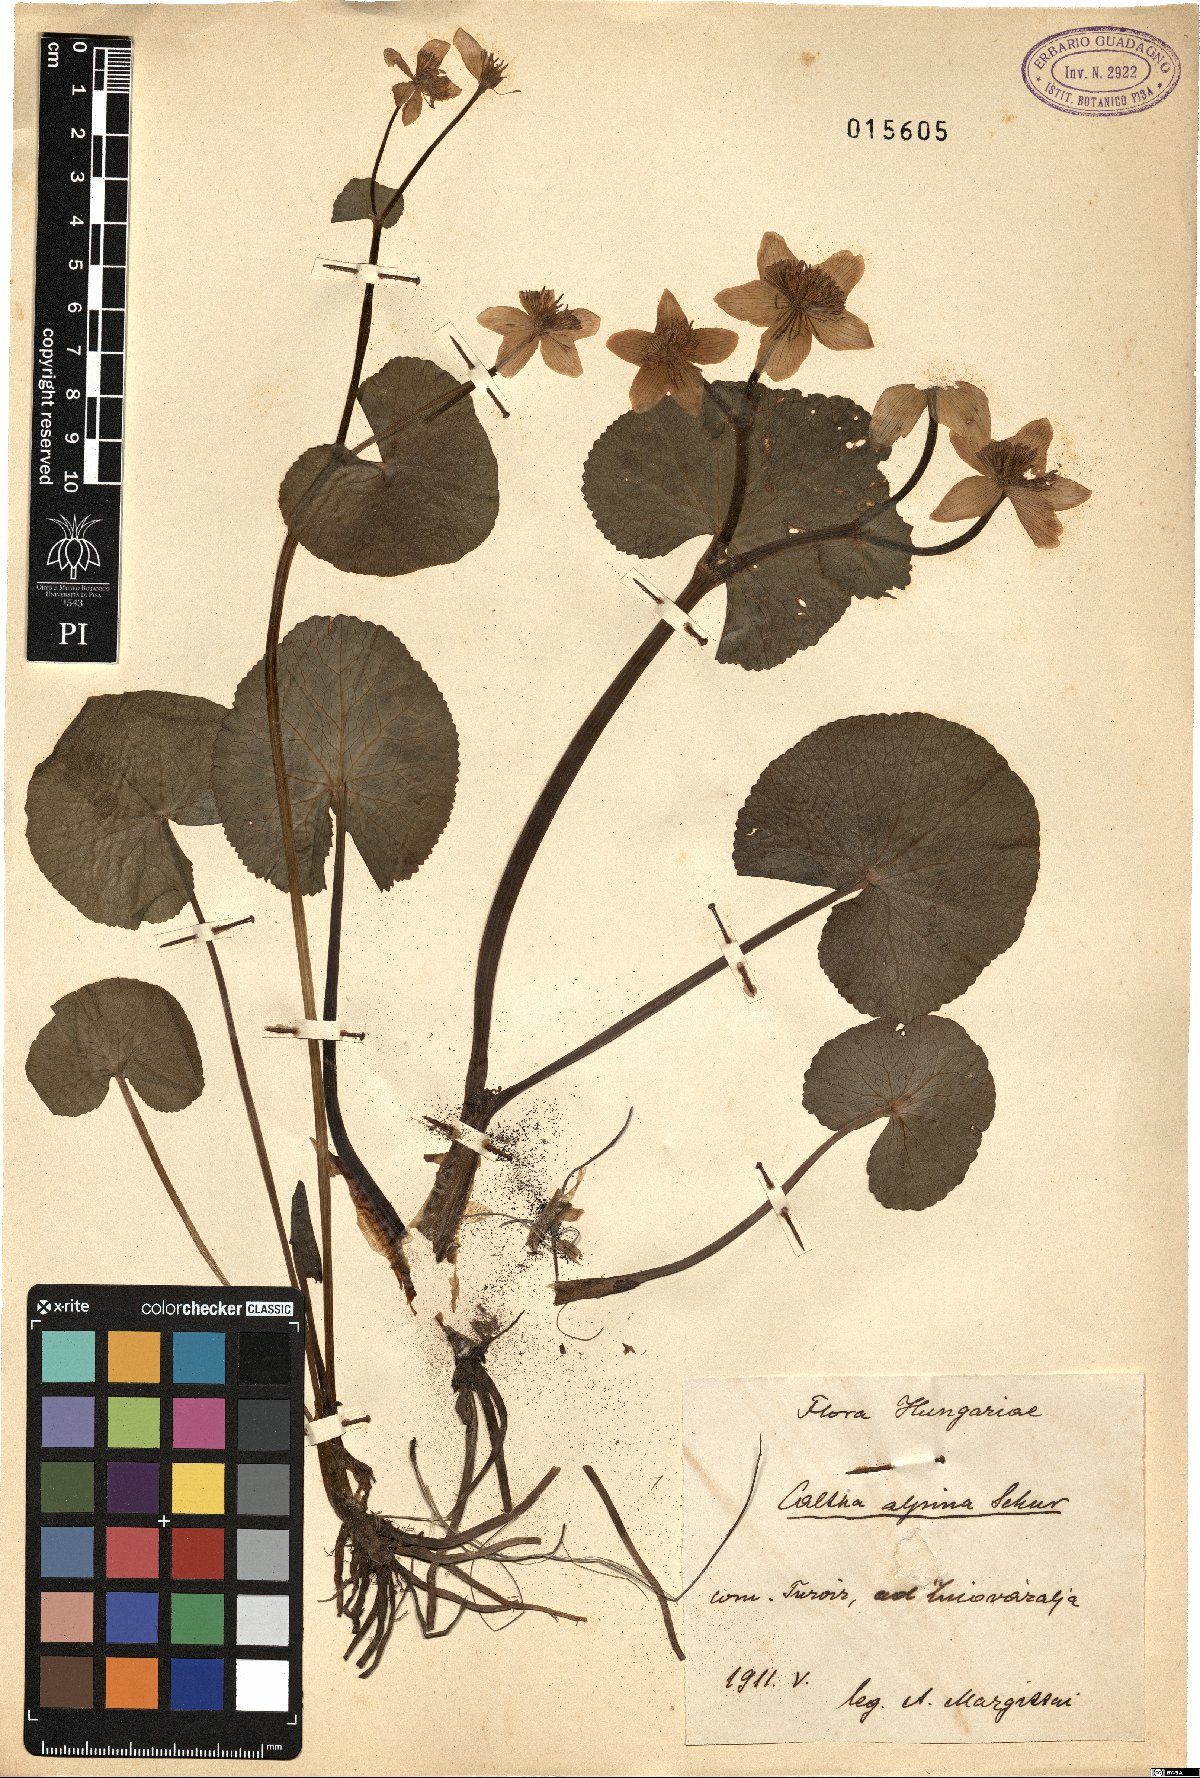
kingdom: Plantae
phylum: Tracheophyta
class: Magnoliopsida
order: Ranunculales
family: Ranunculaceae
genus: Caltha
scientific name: Caltha palustris
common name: Marsh marigold
